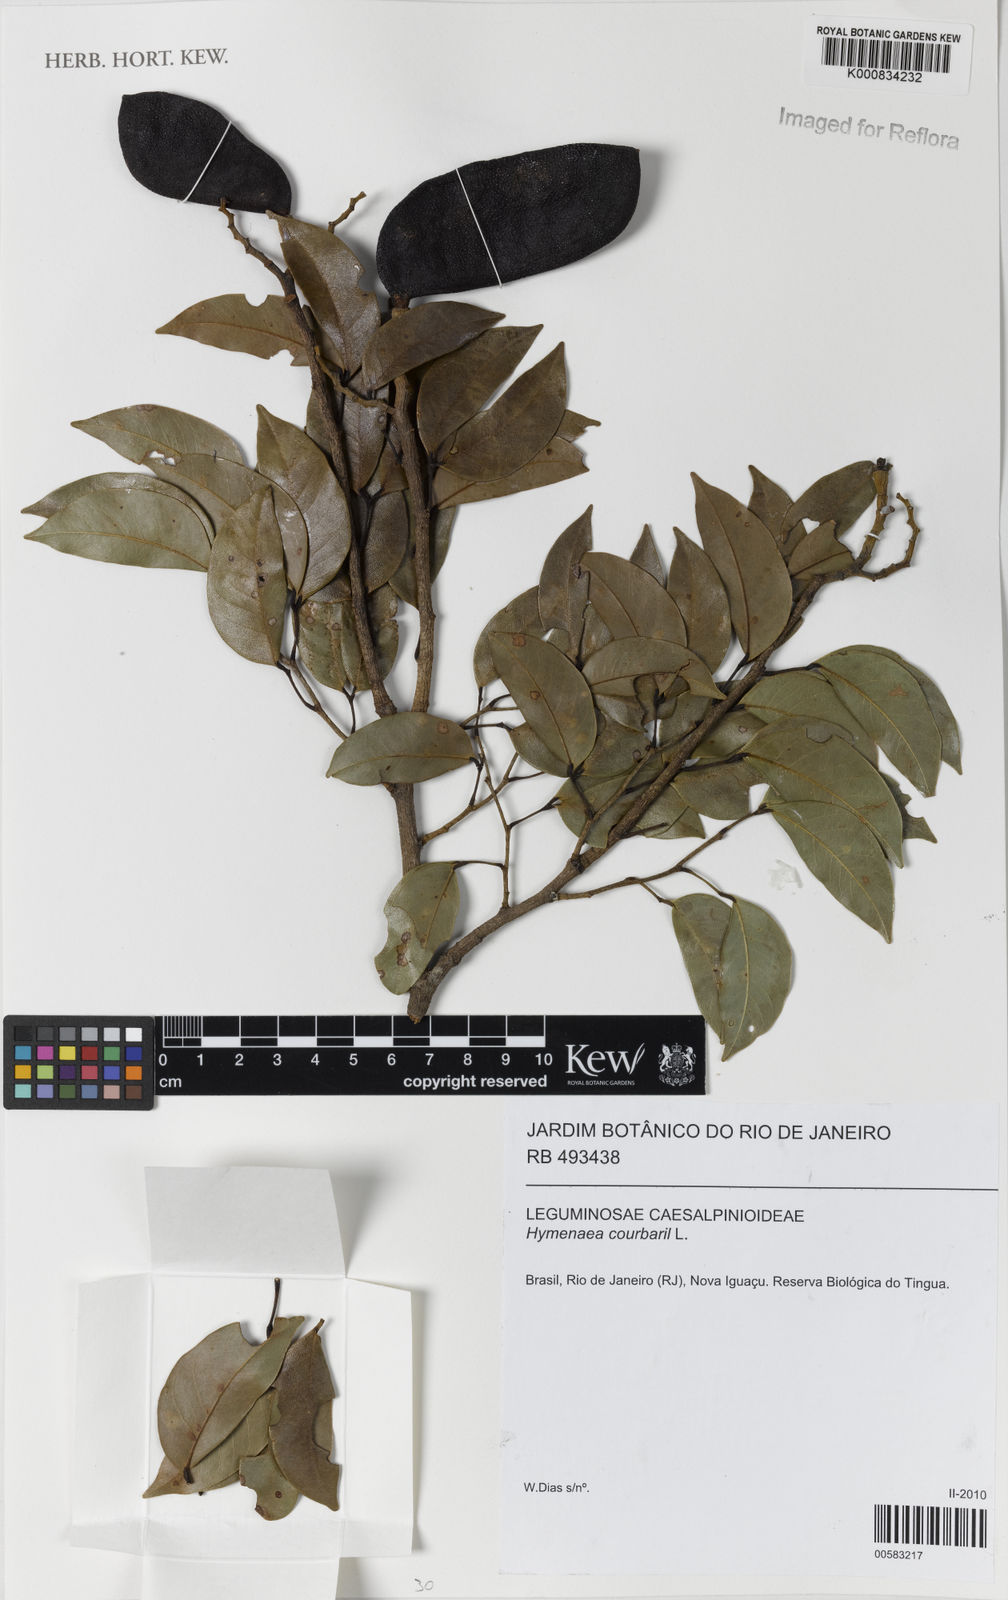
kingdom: Plantae
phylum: Tracheophyta
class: Magnoliopsida
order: Fabales
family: Fabaceae
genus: Hymenaea
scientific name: Hymenaea courbaril
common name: Brazilian copal
